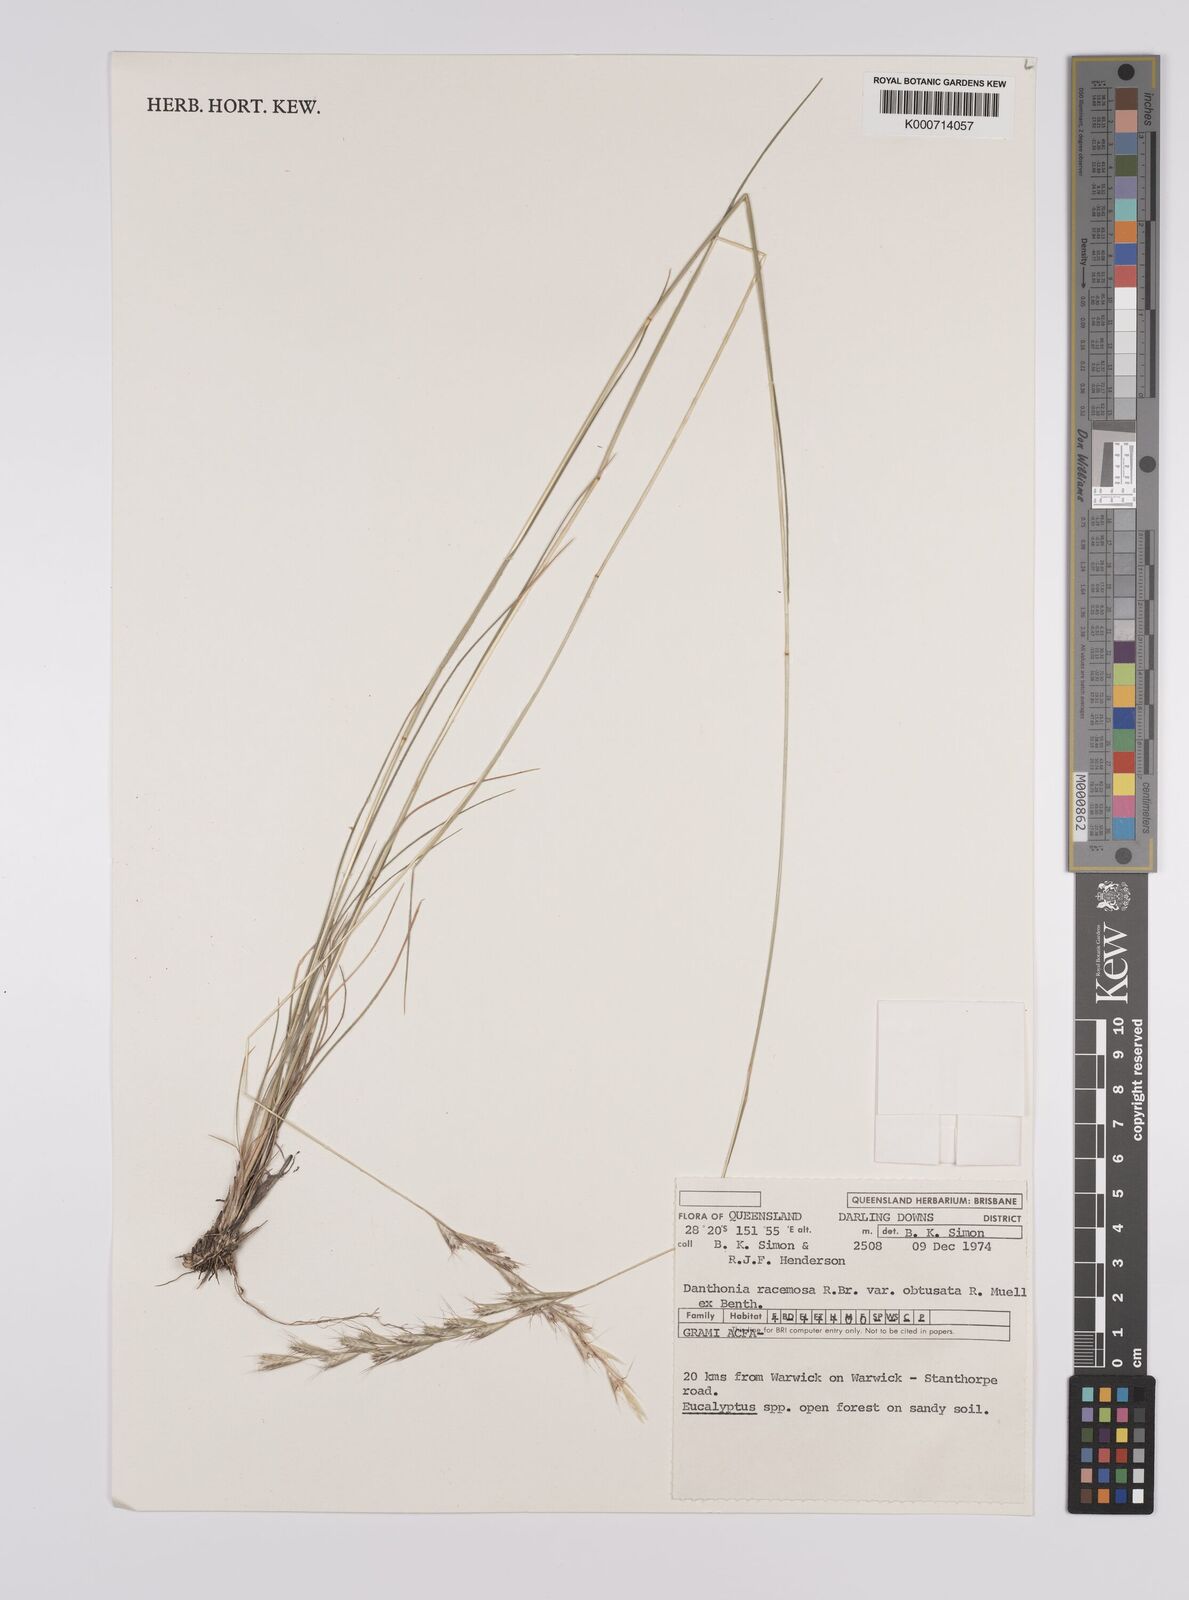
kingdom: Plantae
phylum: Tracheophyta
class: Liliopsida
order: Poales
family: Poaceae
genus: Rytidosperma
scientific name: Rytidosperma racemosum
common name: Wallaby-grass
